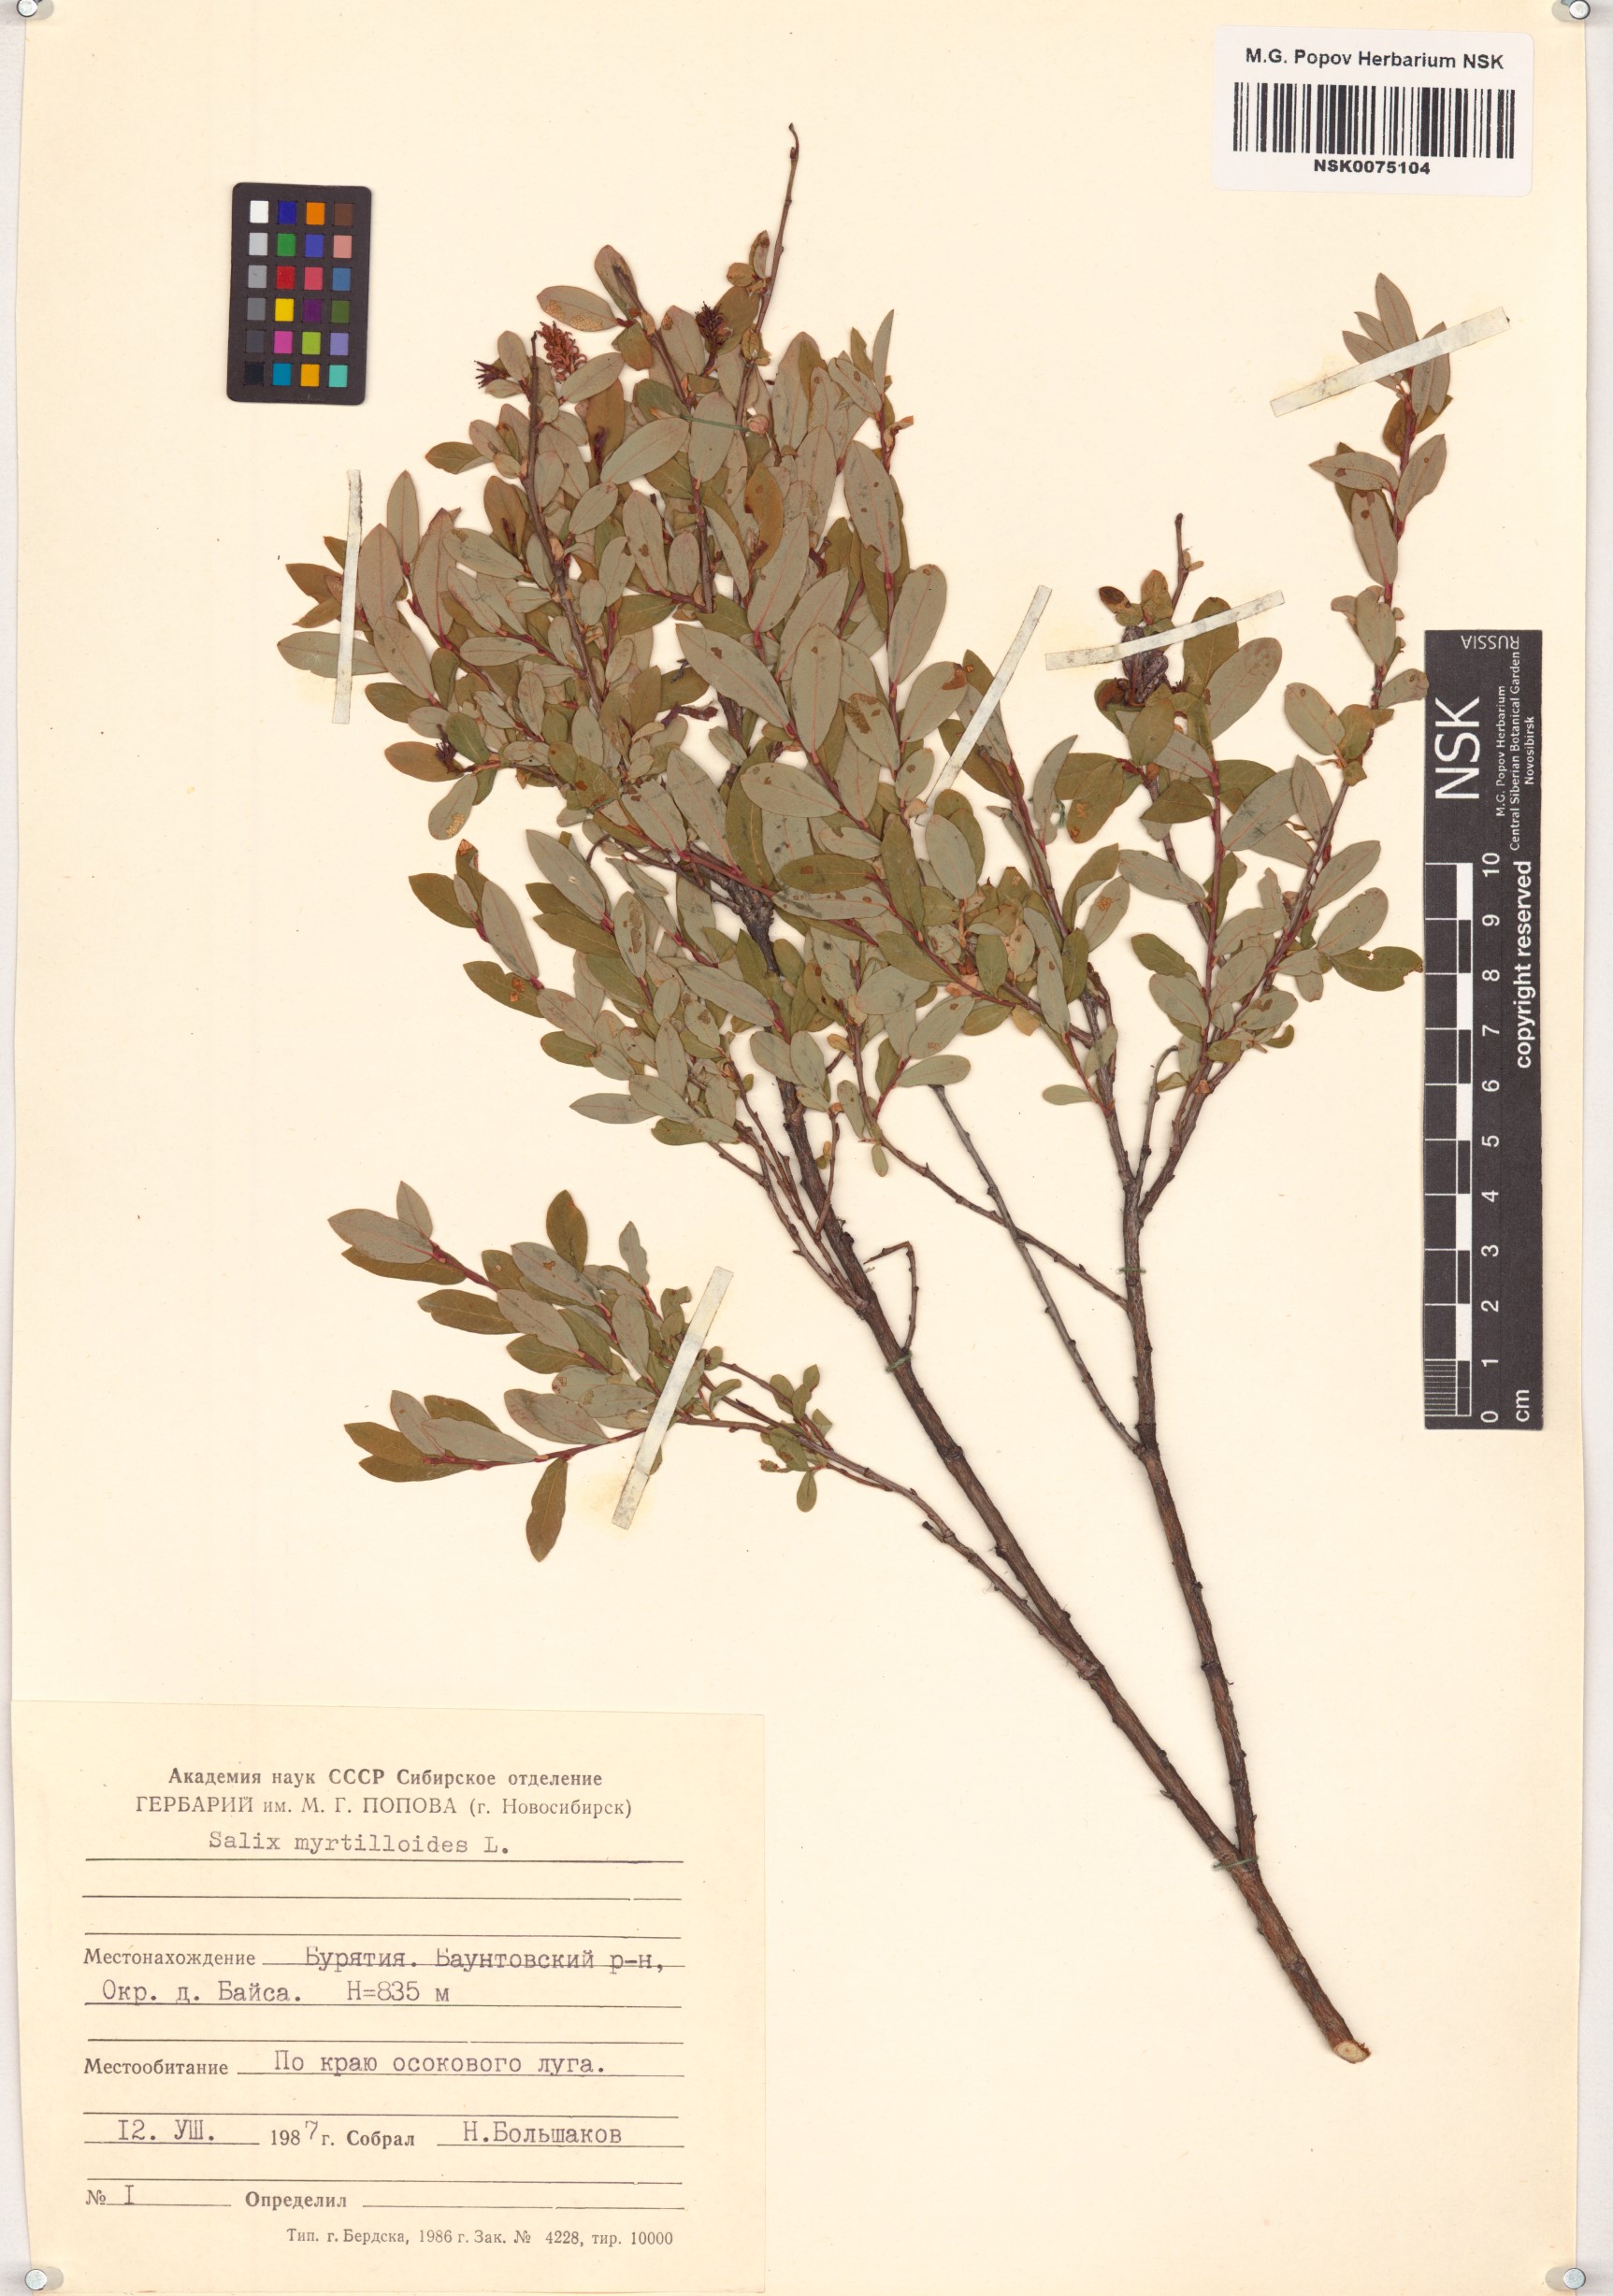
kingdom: Plantae
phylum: Tracheophyta
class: Magnoliopsida
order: Malpighiales
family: Salicaceae
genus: Salix
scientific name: Salix myrtilloides
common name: Myrtle-leaved willow
